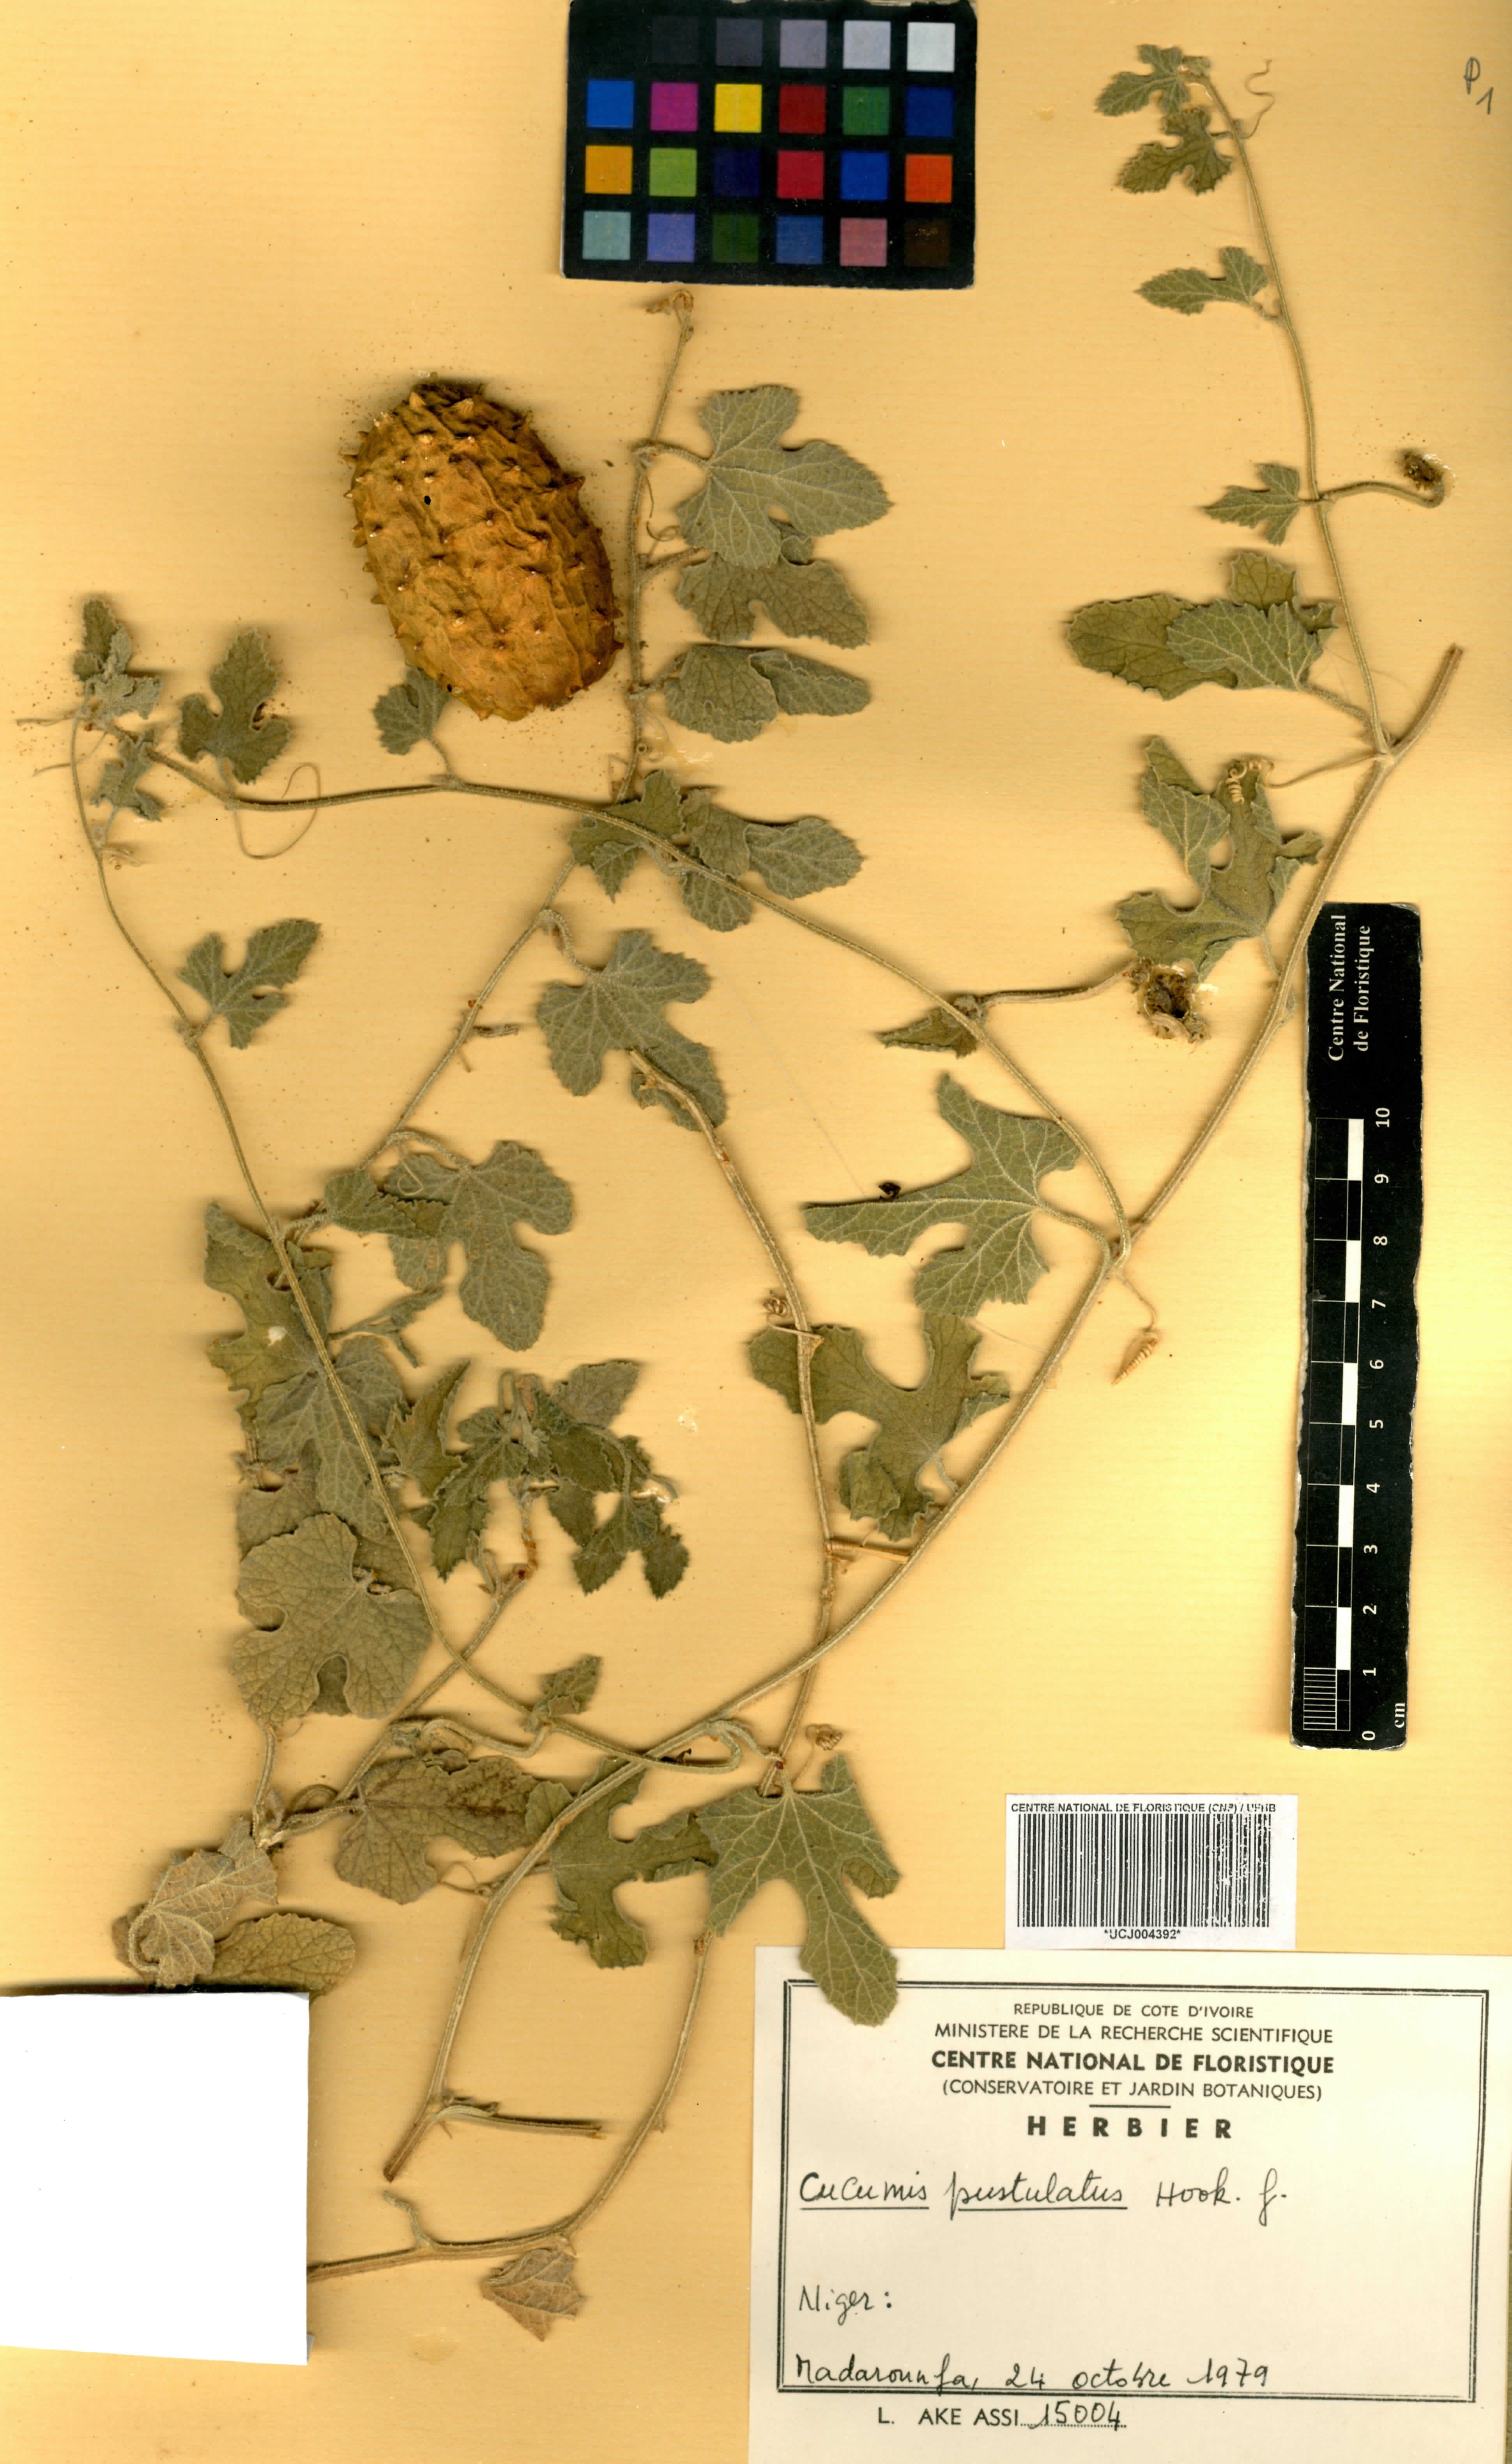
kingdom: Plantae
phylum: Tracheophyta
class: Magnoliopsida
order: Cucurbitales
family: Cucurbitaceae
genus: Cucumis
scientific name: Cucumis pustulatus
